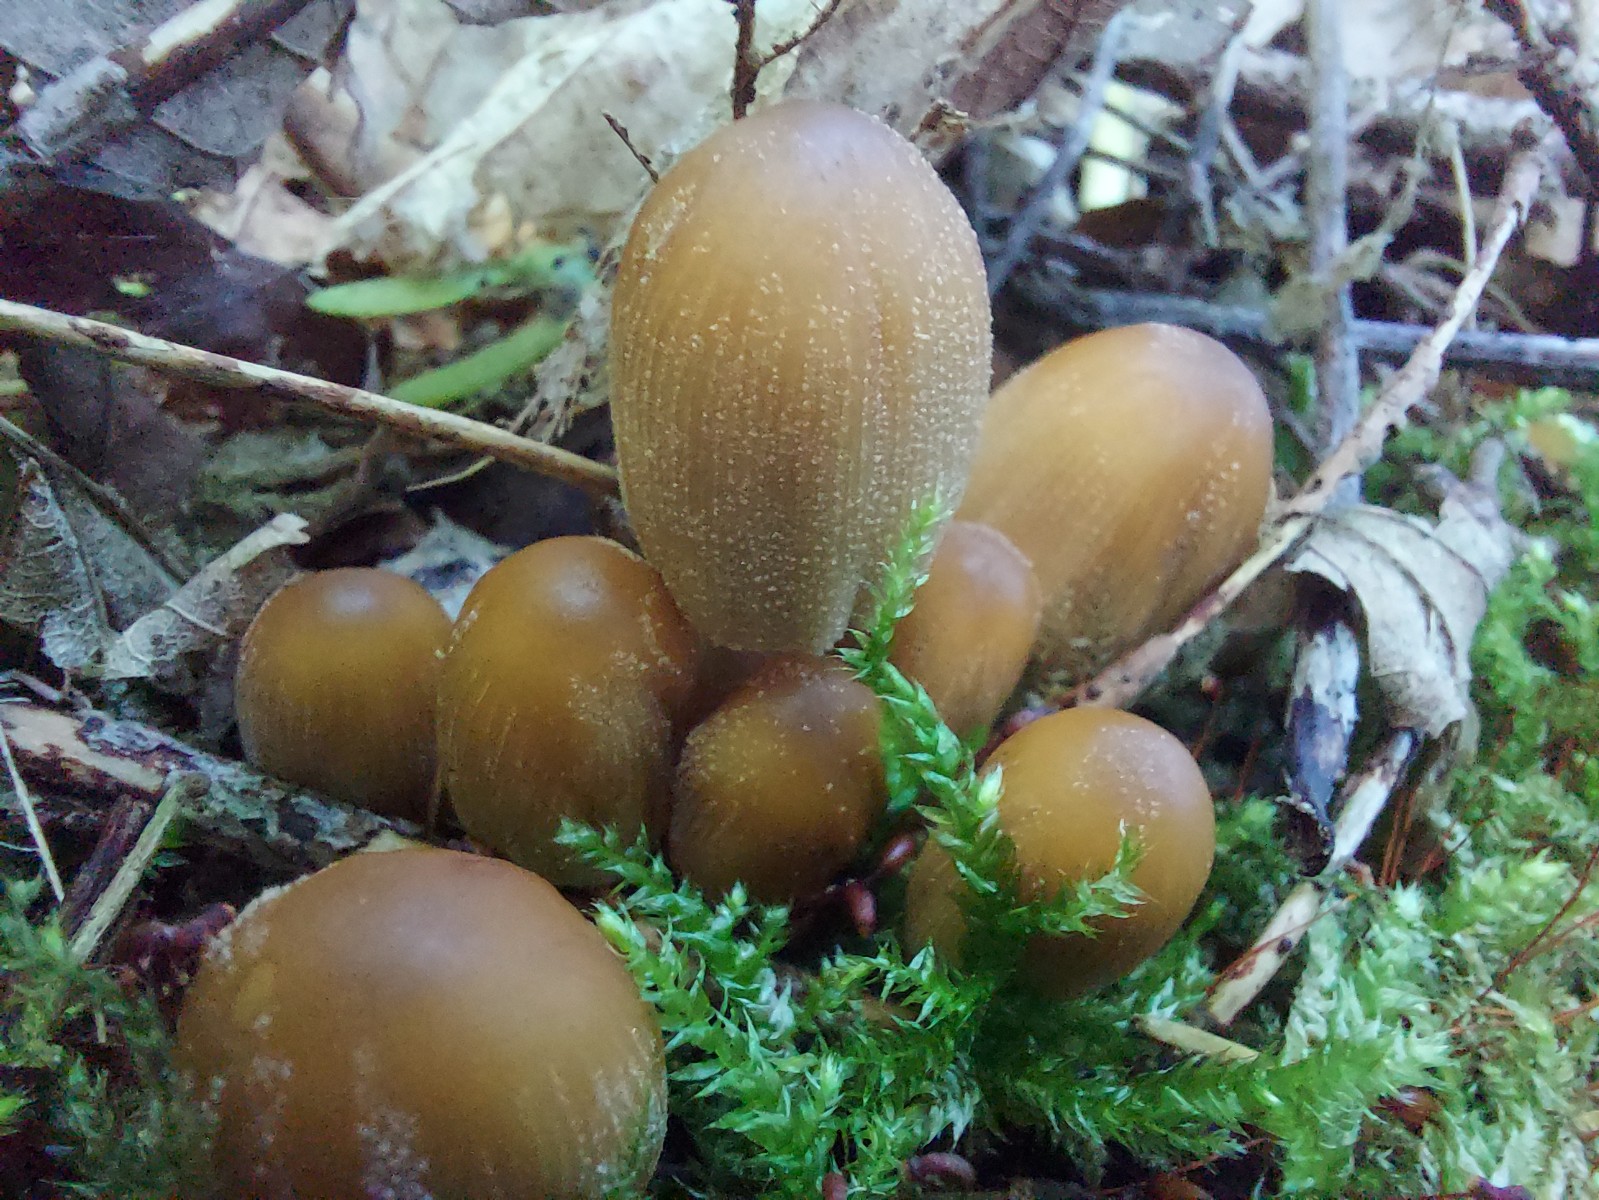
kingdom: Fungi
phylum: Basidiomycota
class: Agaricomycetes
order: Agaricales
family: Psathyrellaceae
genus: Coprinellus
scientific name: Coprinellus micaceus
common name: glimmer-blækhat
